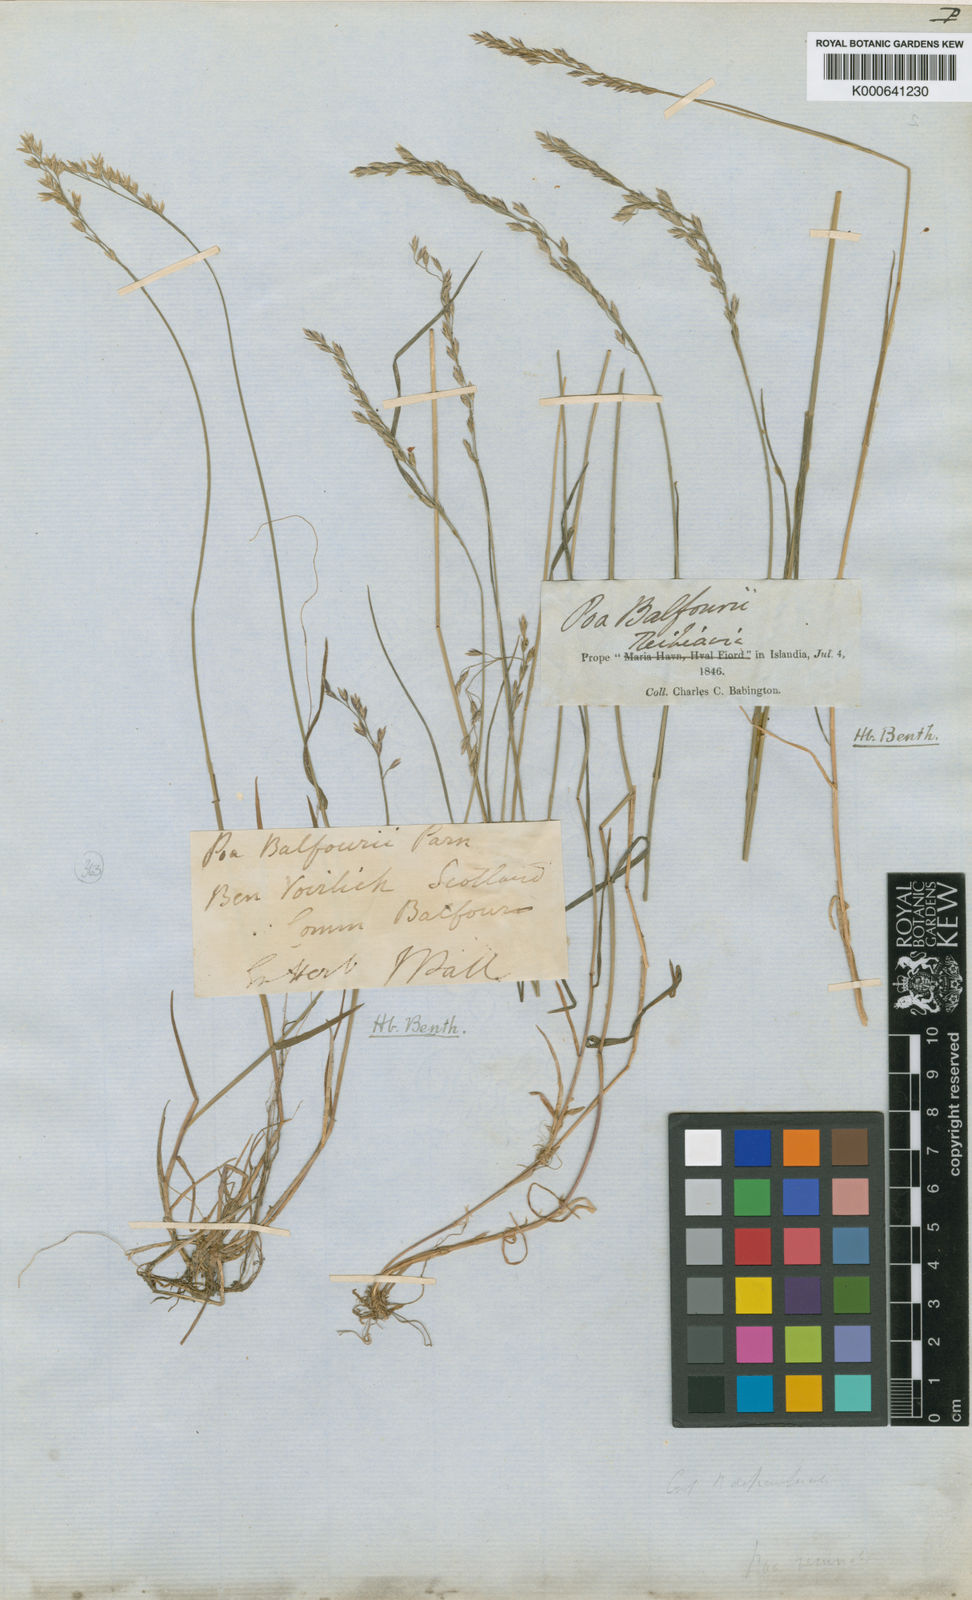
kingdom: Plantae
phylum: Tracheophyta
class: Liliopsida
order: Poales
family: Poaceae
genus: Poa
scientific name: Poa glauca
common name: Glaucous bluegrass
